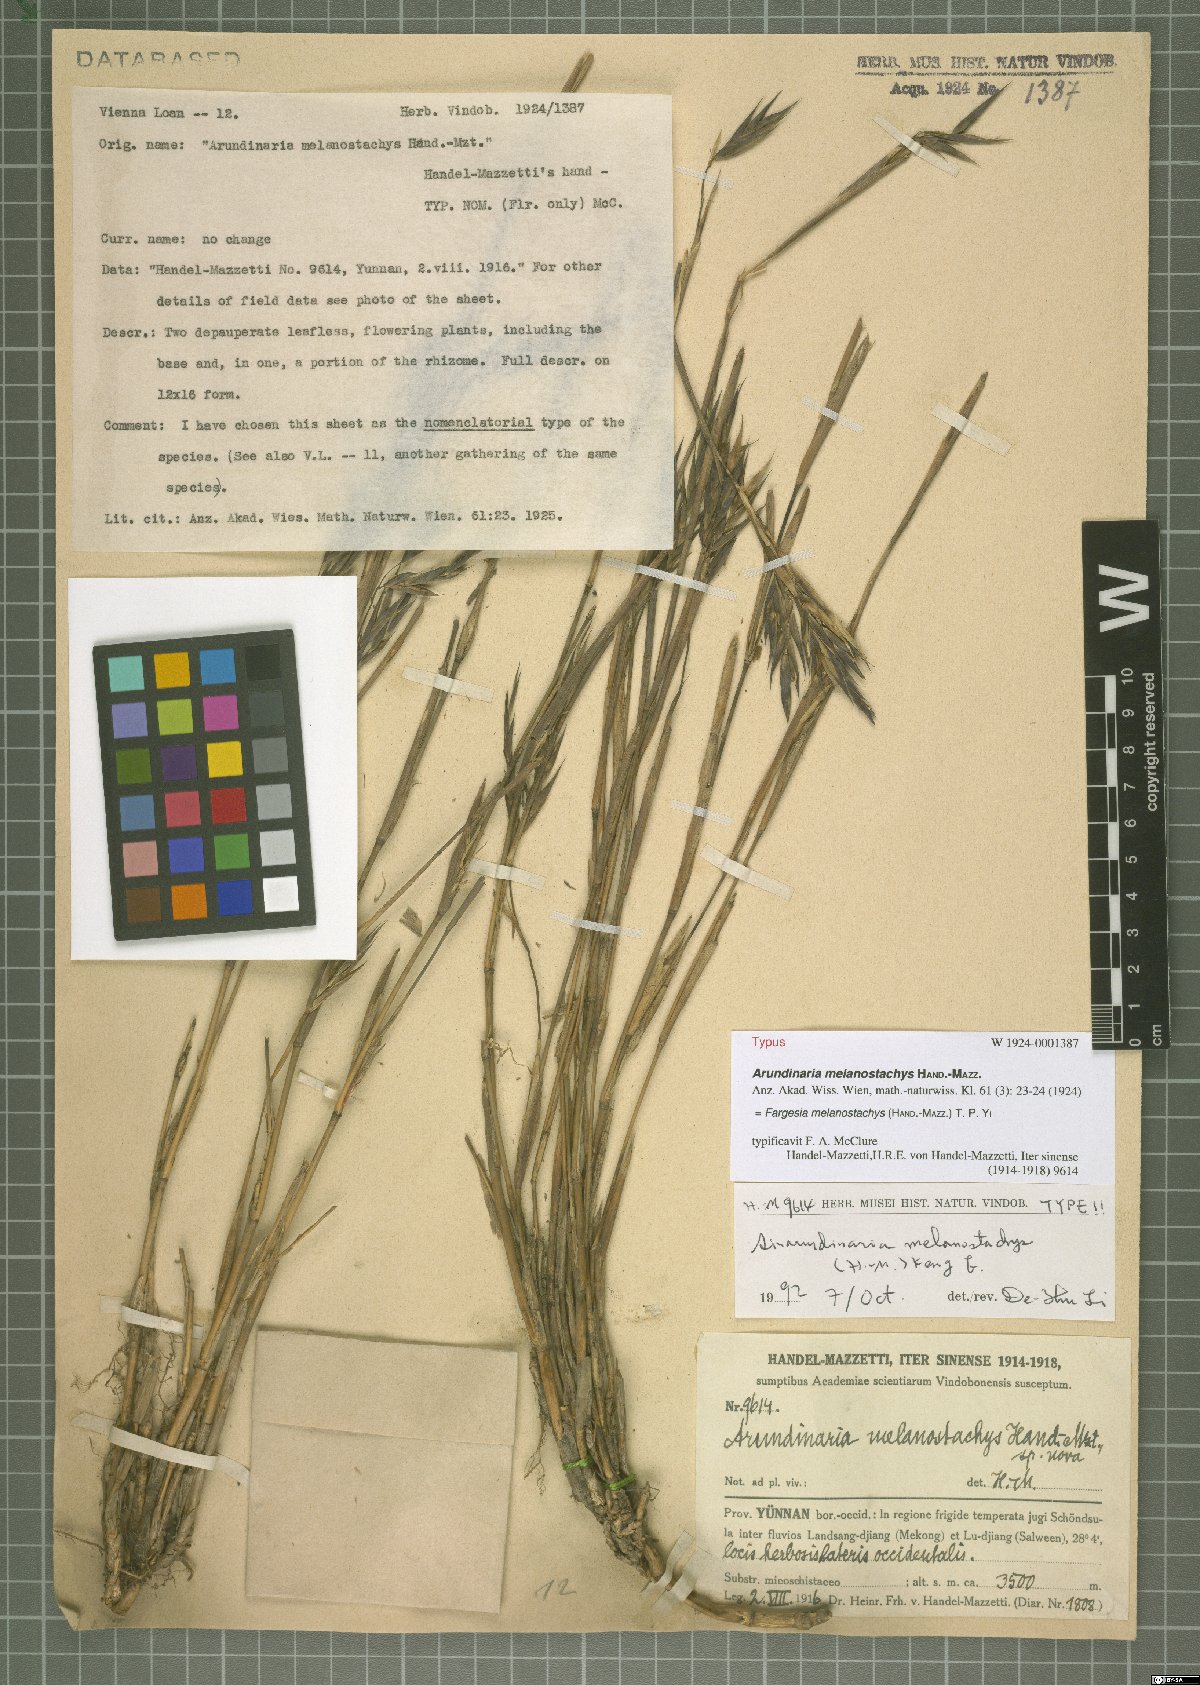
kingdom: Plantae
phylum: Tracheophyta
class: Liliopsida
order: Poales
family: Poaceae
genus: Fargesia
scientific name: Fargesia melanostachys
